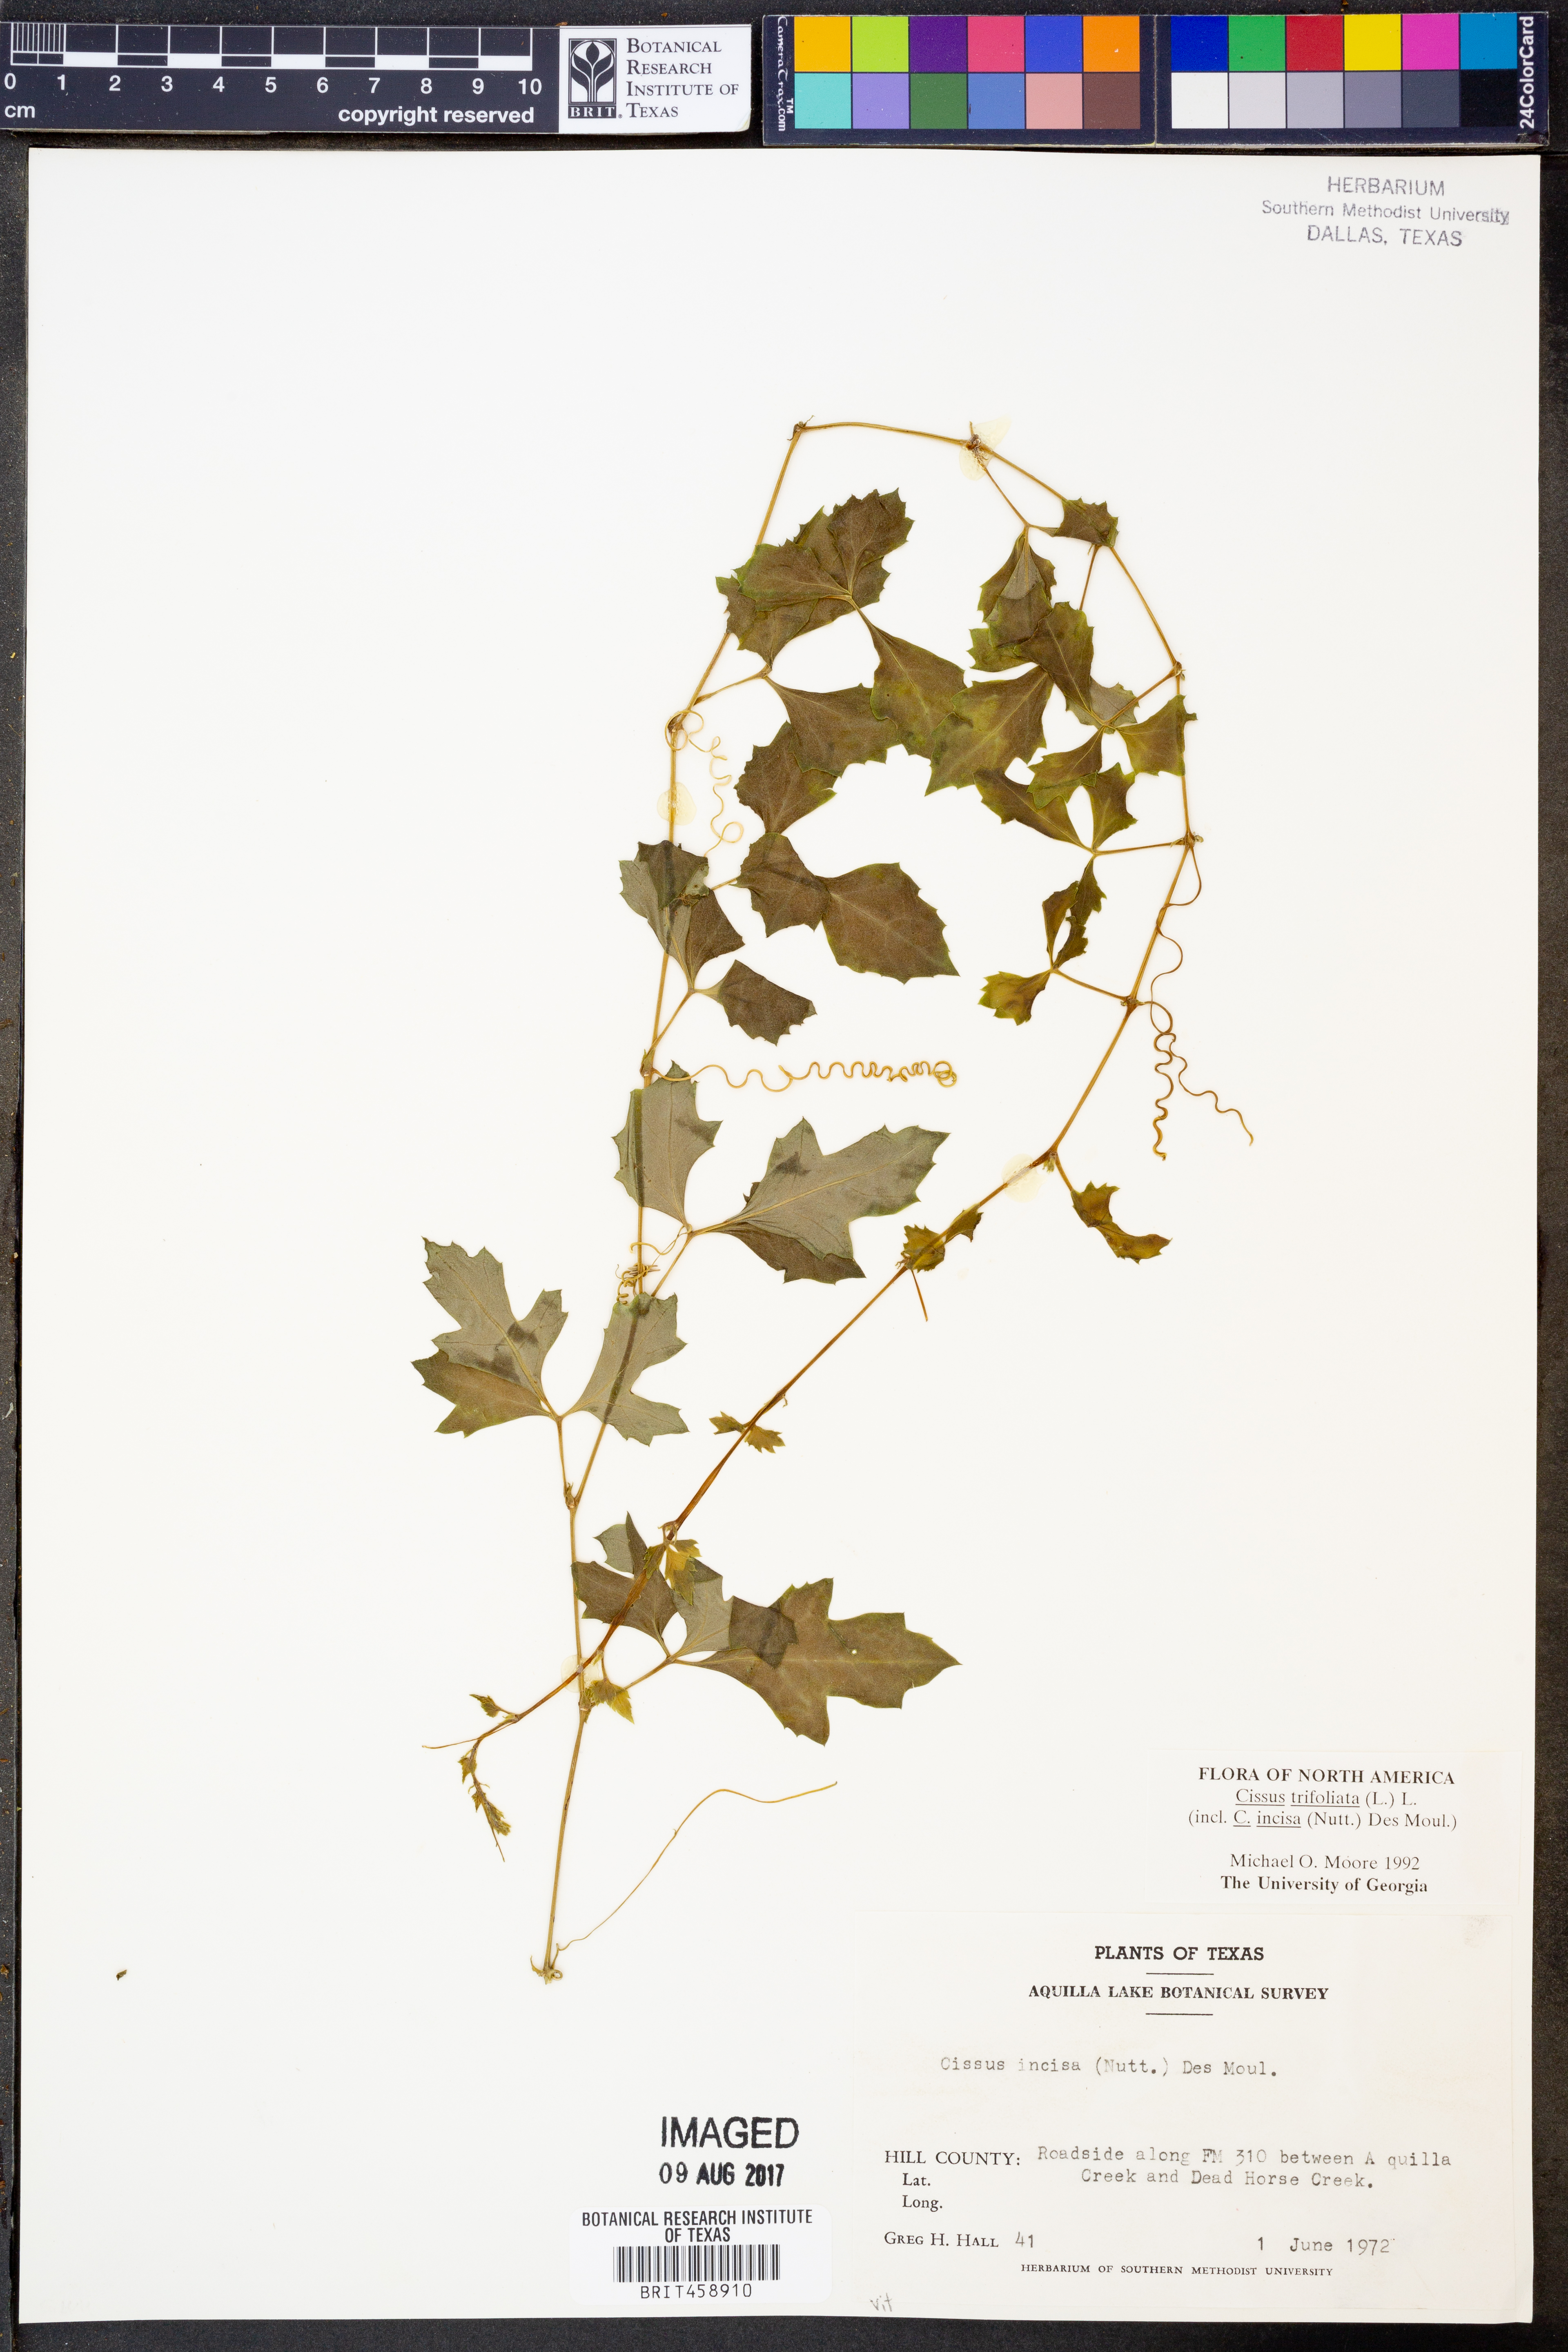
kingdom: Plantae
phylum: Tracheophyta
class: Magnoliopsida
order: Vitales
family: Vitaceae
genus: Cissus
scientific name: Cissus trifoliata
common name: Vine-sorrel
